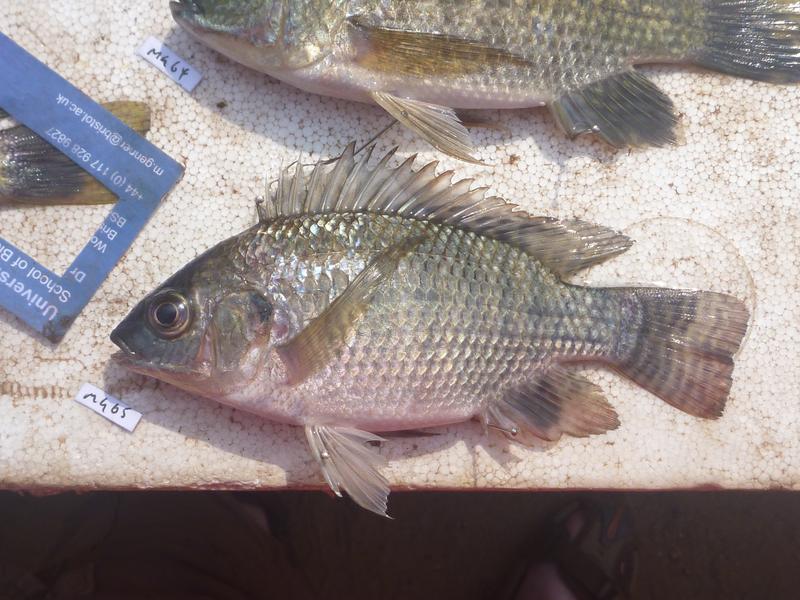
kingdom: Animalia
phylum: Chordata
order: Perciformes
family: Cichlidae
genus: Oreochromis
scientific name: Oreochromis niloticus
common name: Nile tilapia
